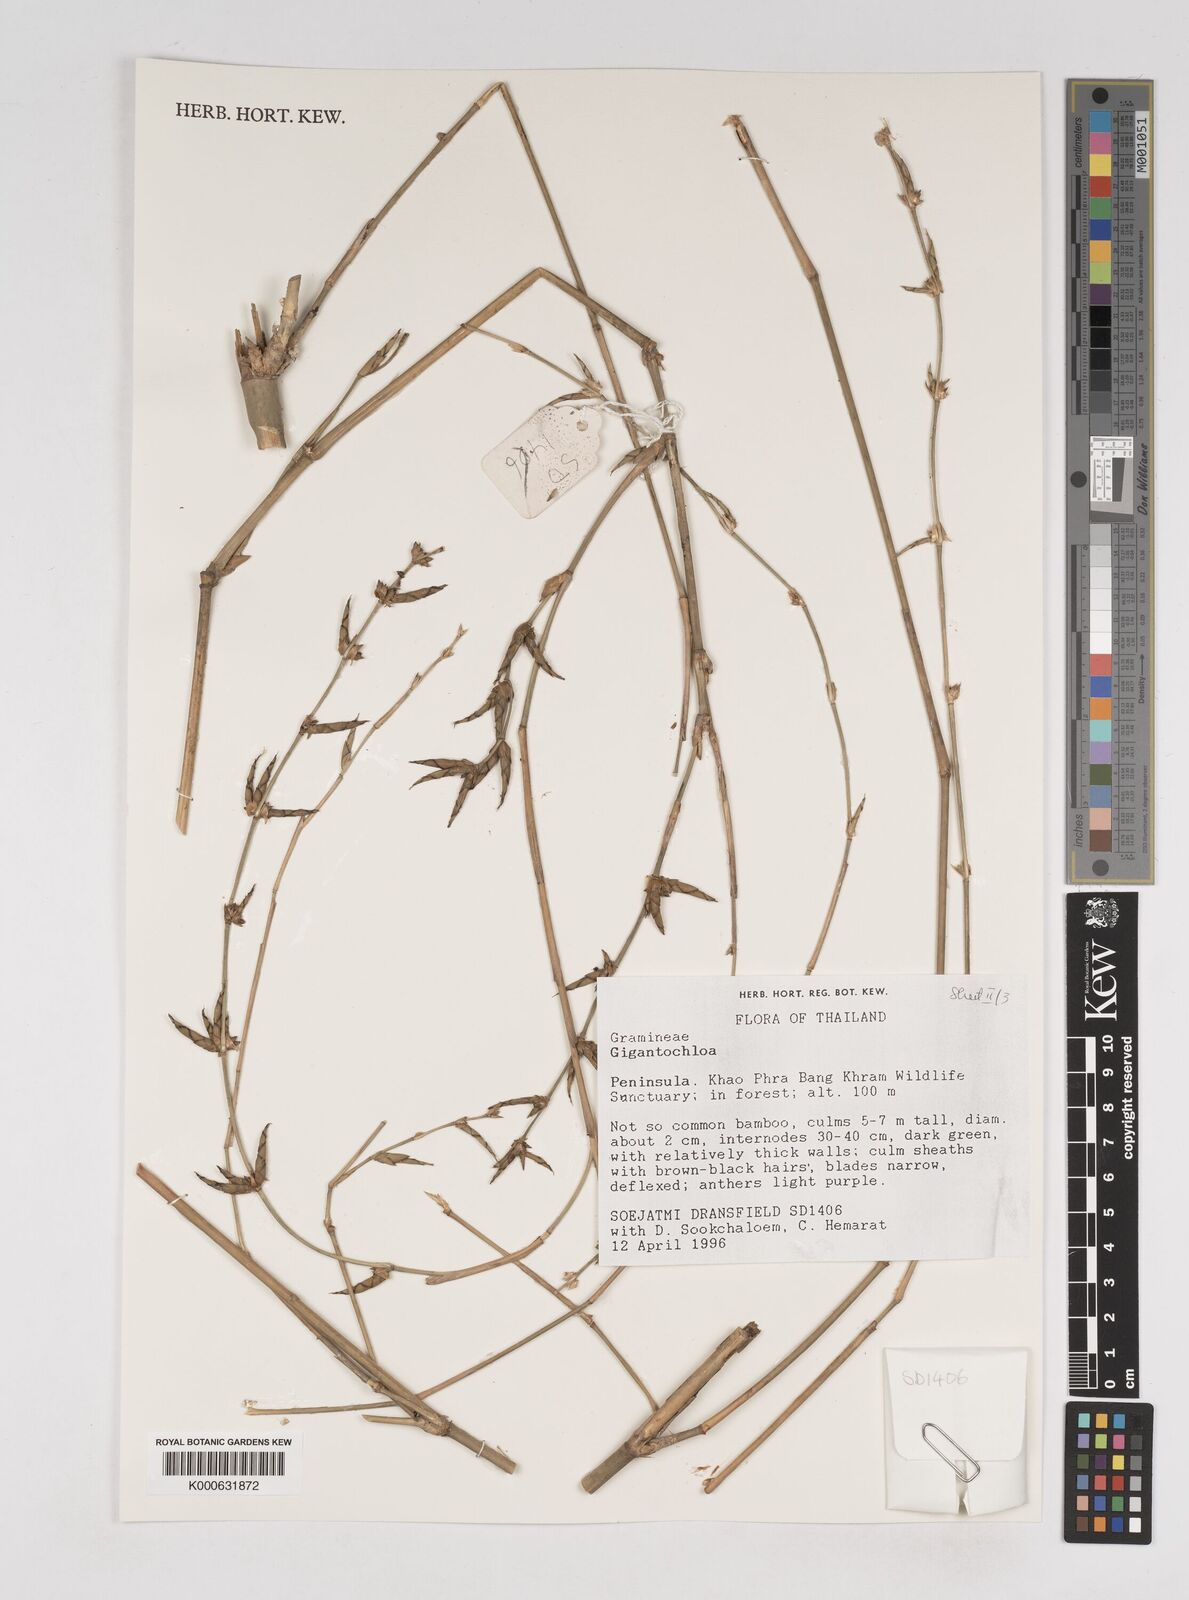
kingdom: Plantae
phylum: Tracheophyta
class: Liliopsida
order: Poales
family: Poaceae
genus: Gigantochloa
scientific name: Gigantochloa
